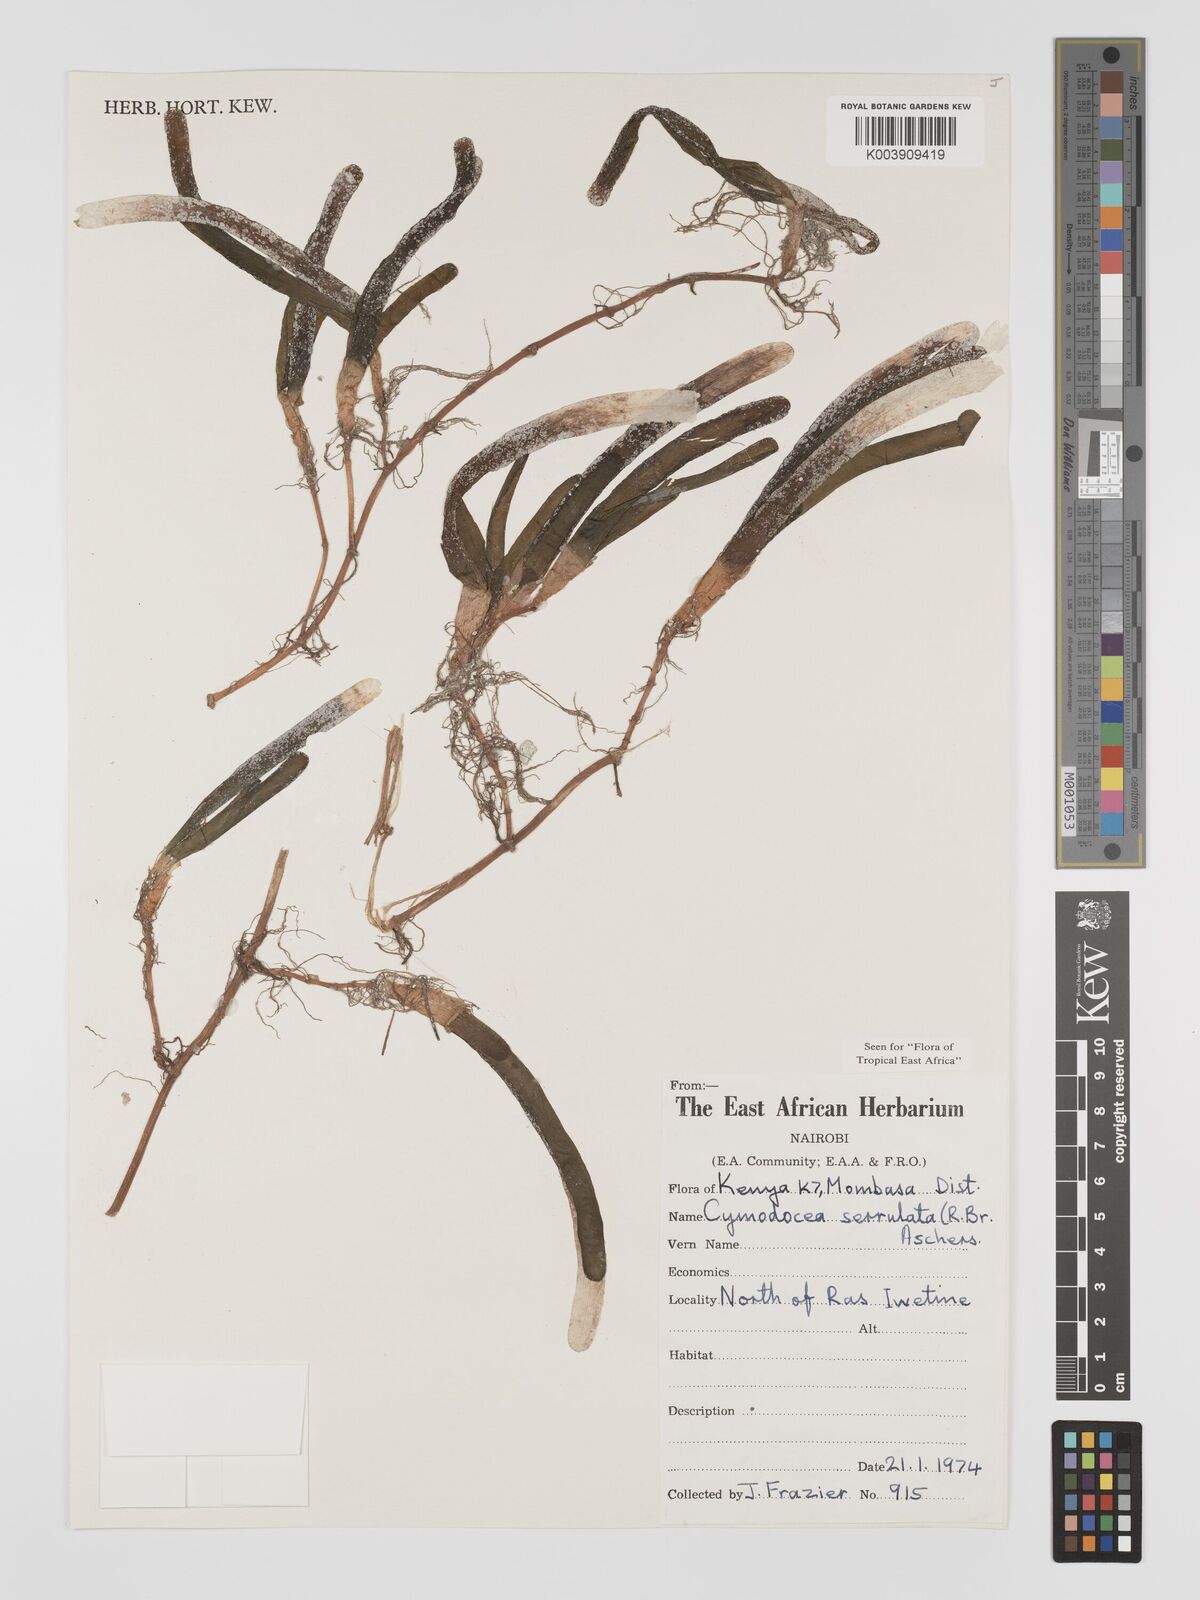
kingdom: Plantae
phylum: Tracheophyta
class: Liliopsida
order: Alismatales
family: Cymodoceaceae
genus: Oceana
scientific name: Oceana serrulata
